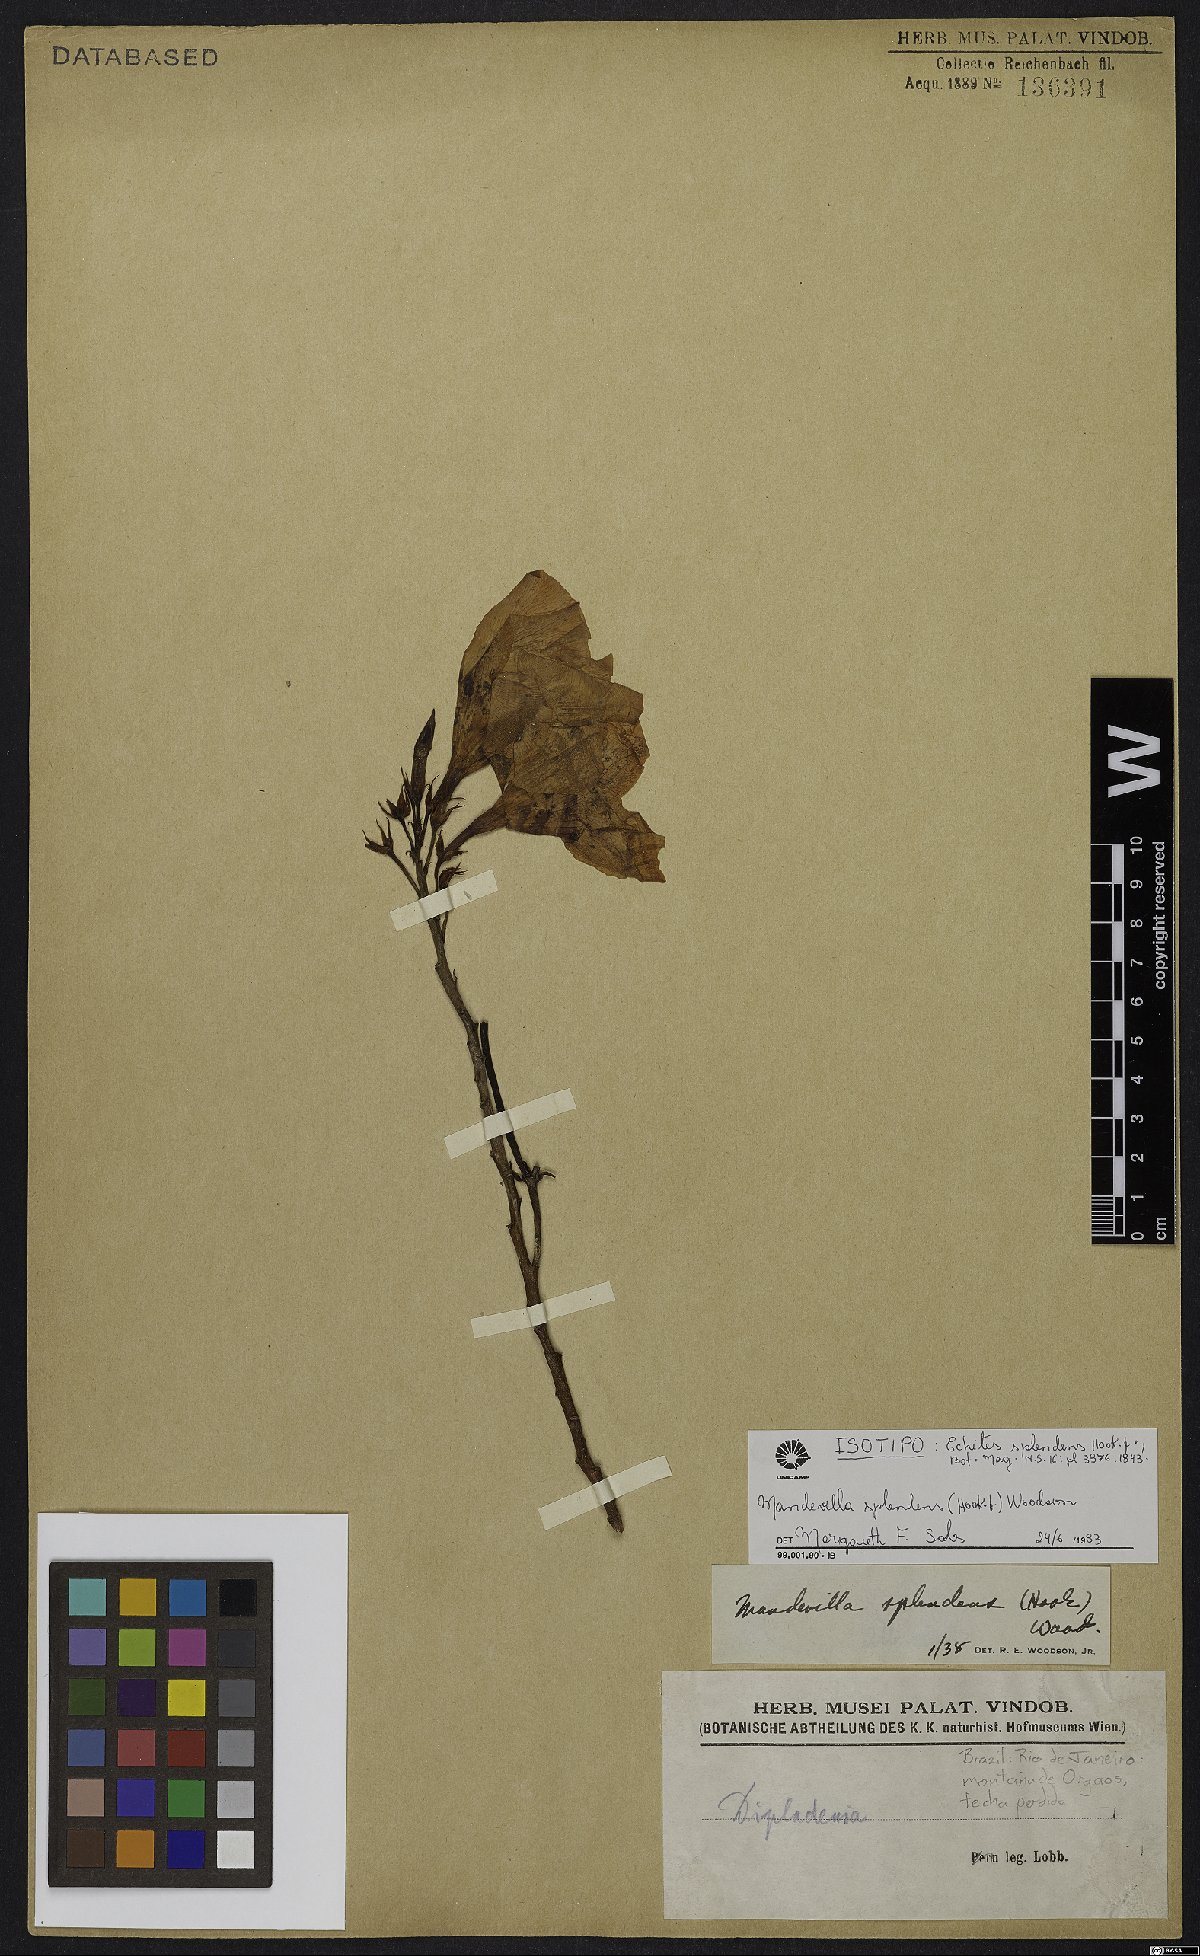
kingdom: Plantae
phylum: Tracheophyta
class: Magnoliopsida
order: Gentianales
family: Apocynaceae
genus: Mandevilla
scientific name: Mandevilla splendens
